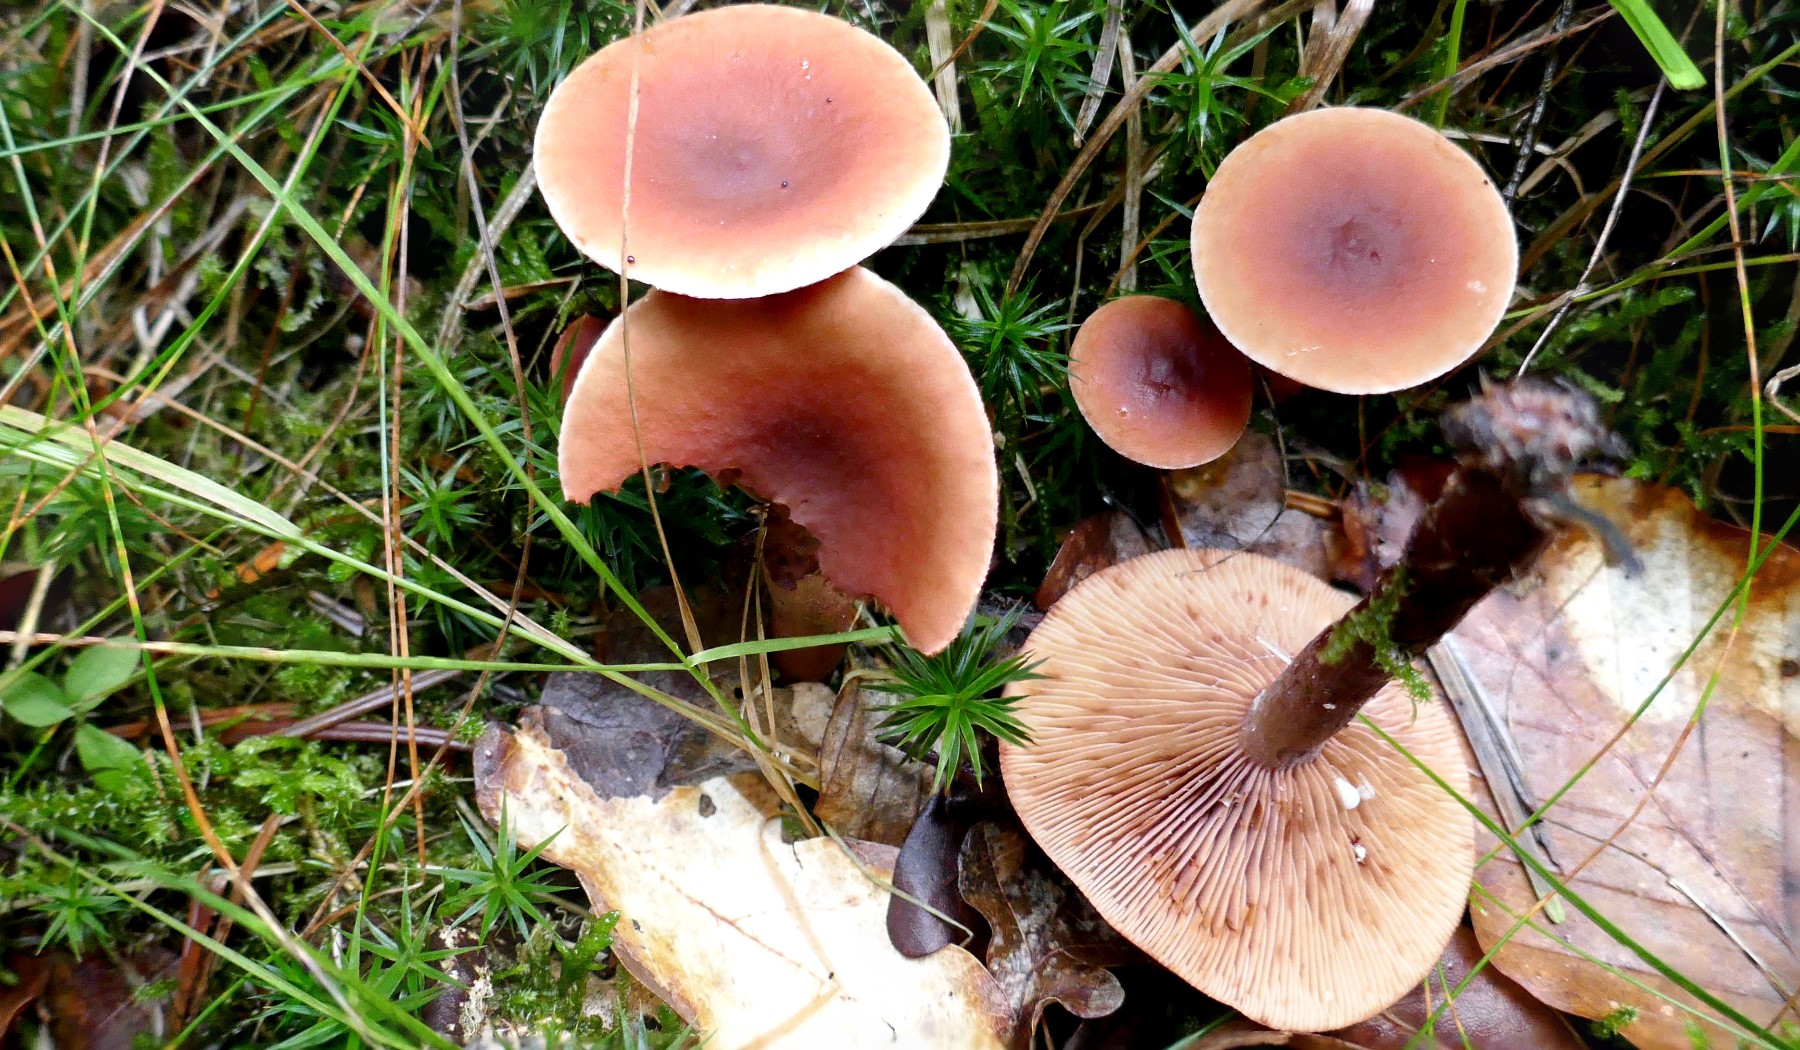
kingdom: Fungi
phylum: Basidiomycota
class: Agaricomycetes
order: Russulales
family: Russulaceae
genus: Lactarius
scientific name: Lactarius camphoratus
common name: kamfer-mælkehat
